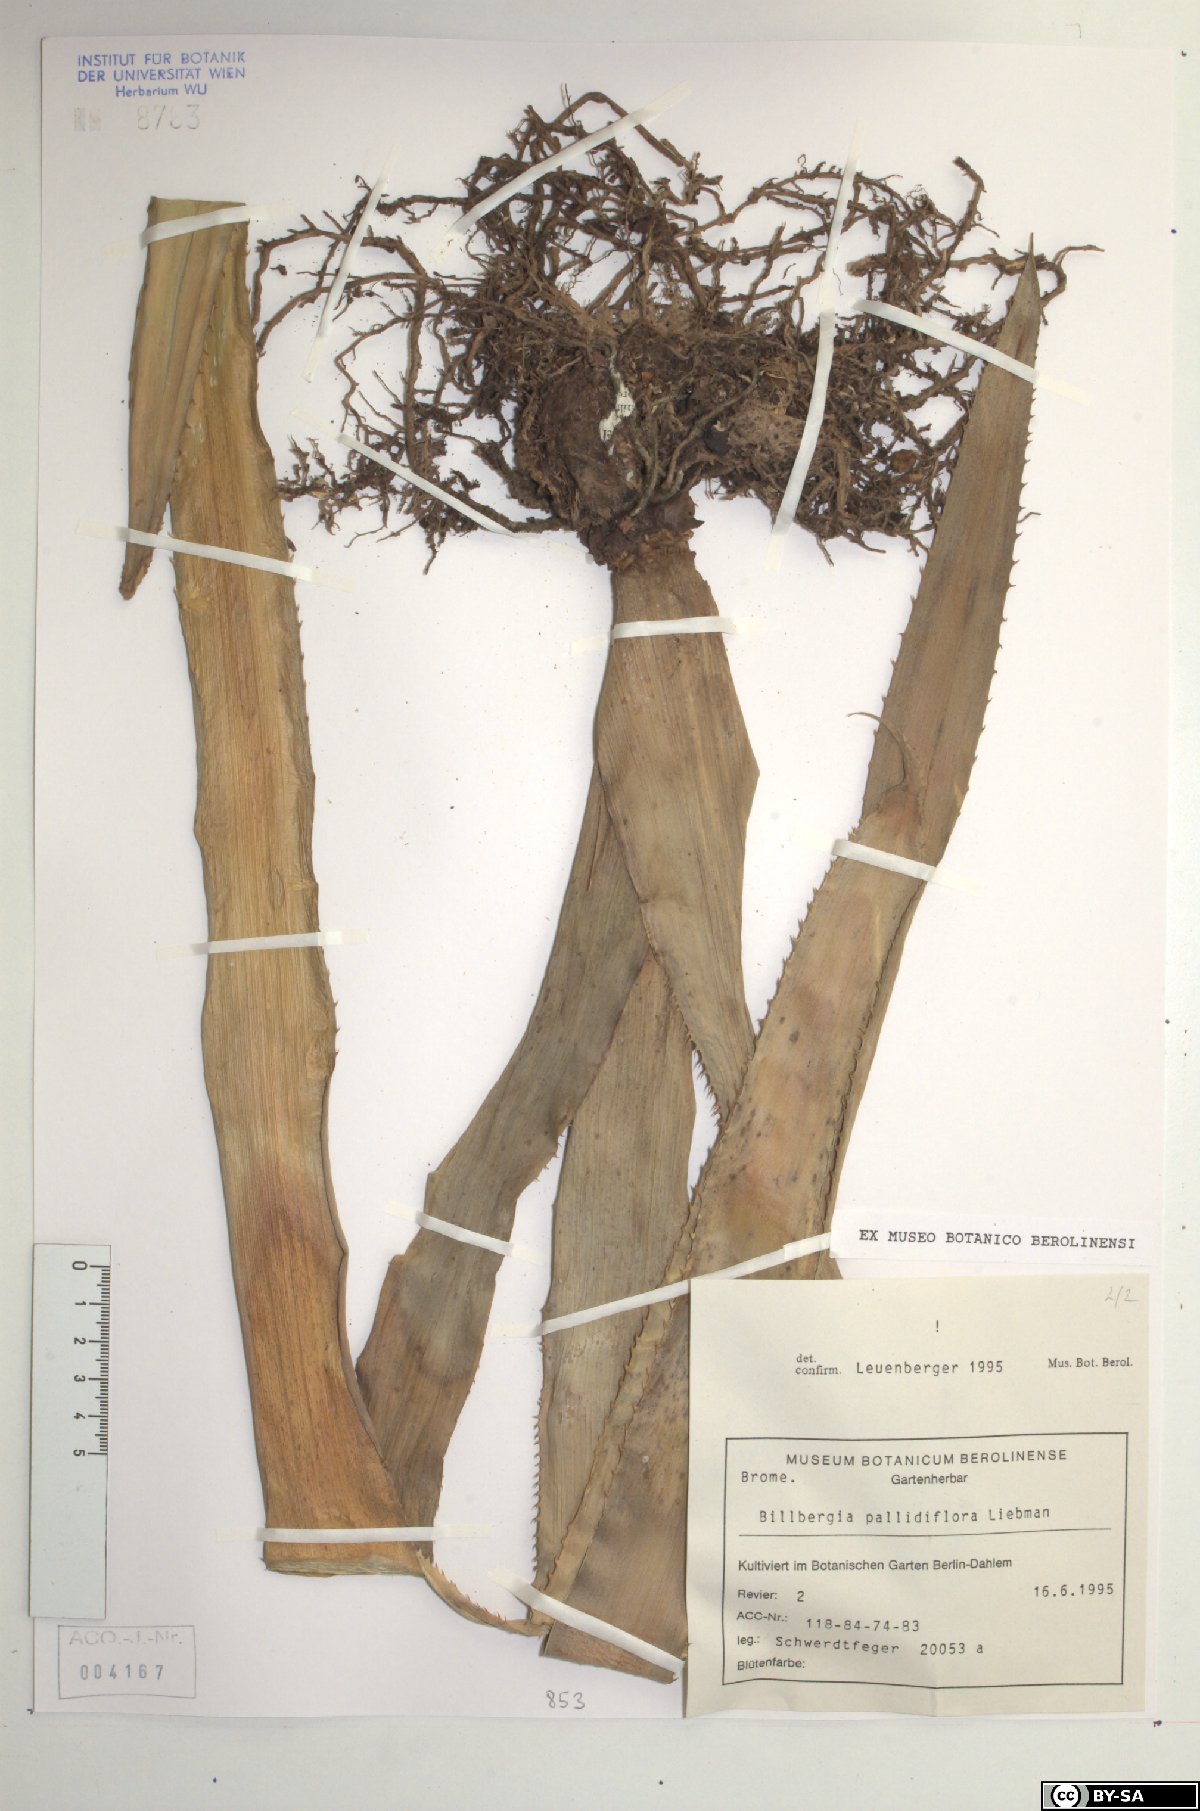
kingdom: Plantae
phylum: Tracheophyta
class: Liliopsida
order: Poales
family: Bromeliaceae
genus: Billbergia
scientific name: Billbergia pallidiflora
